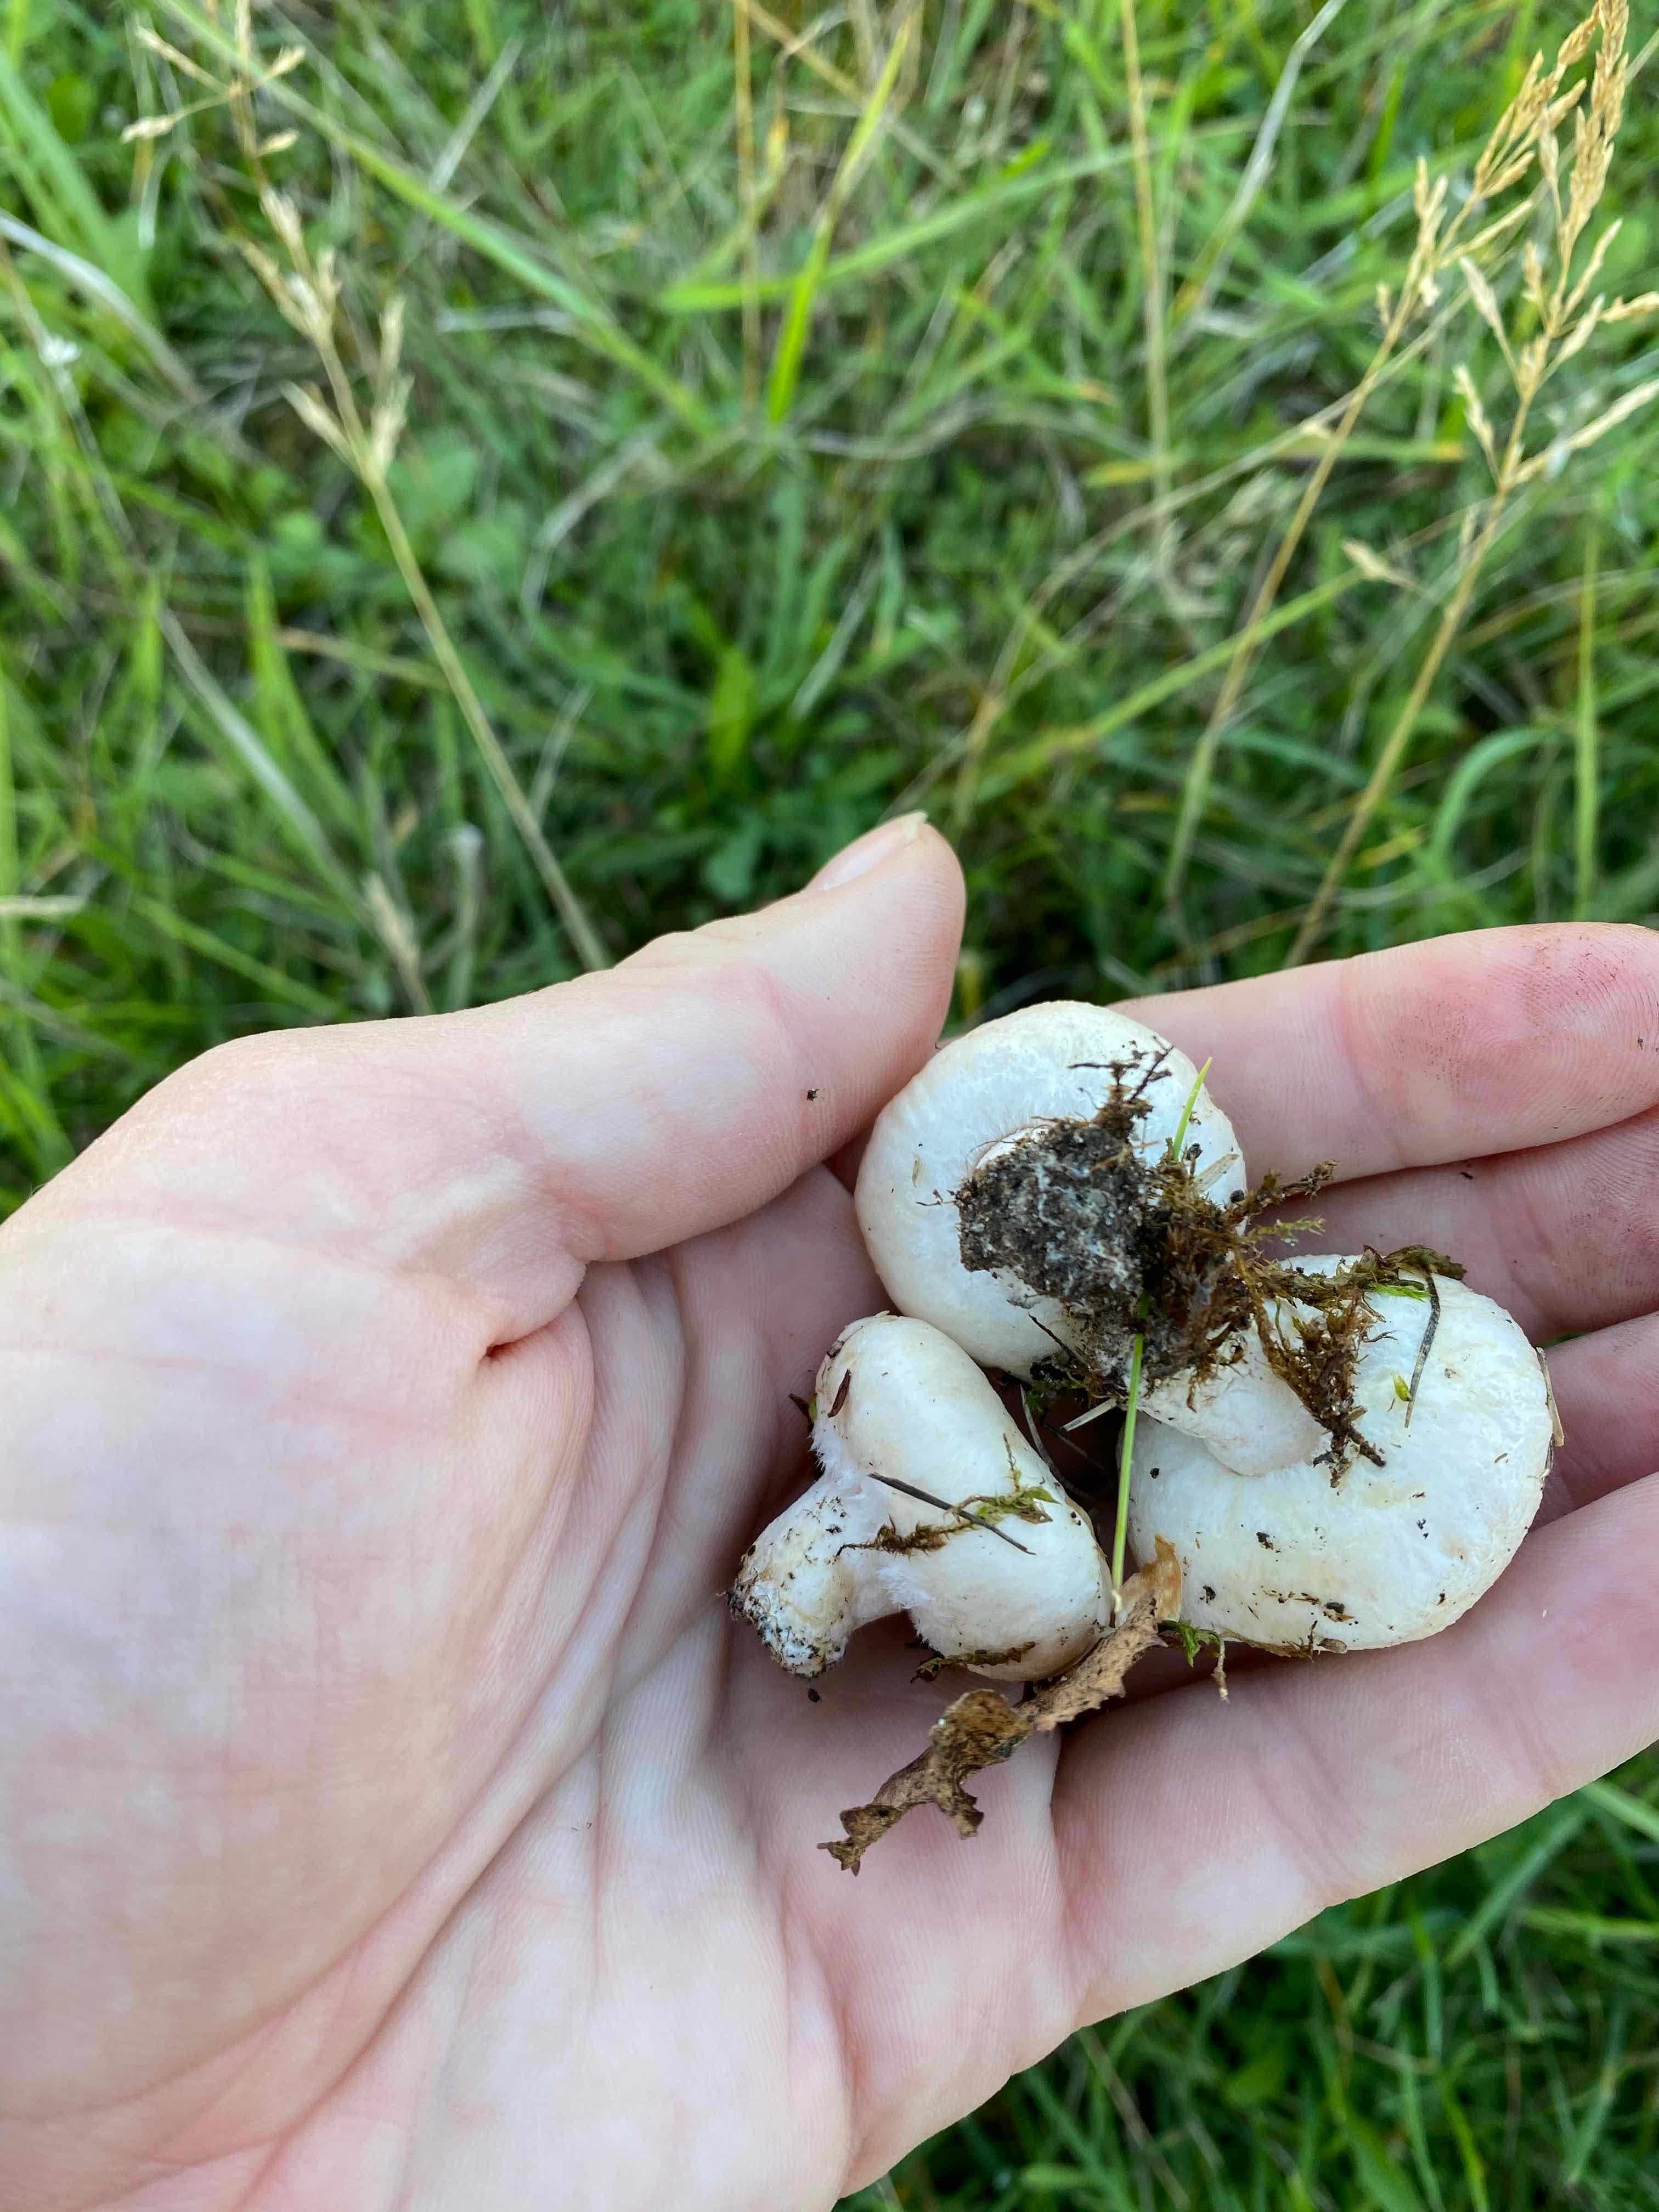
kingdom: Fungi
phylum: Basidiomycota
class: Agaricomycetes
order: Russulales
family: Russulaceae
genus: Lactarius
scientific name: Lactarius
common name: mælkehat
